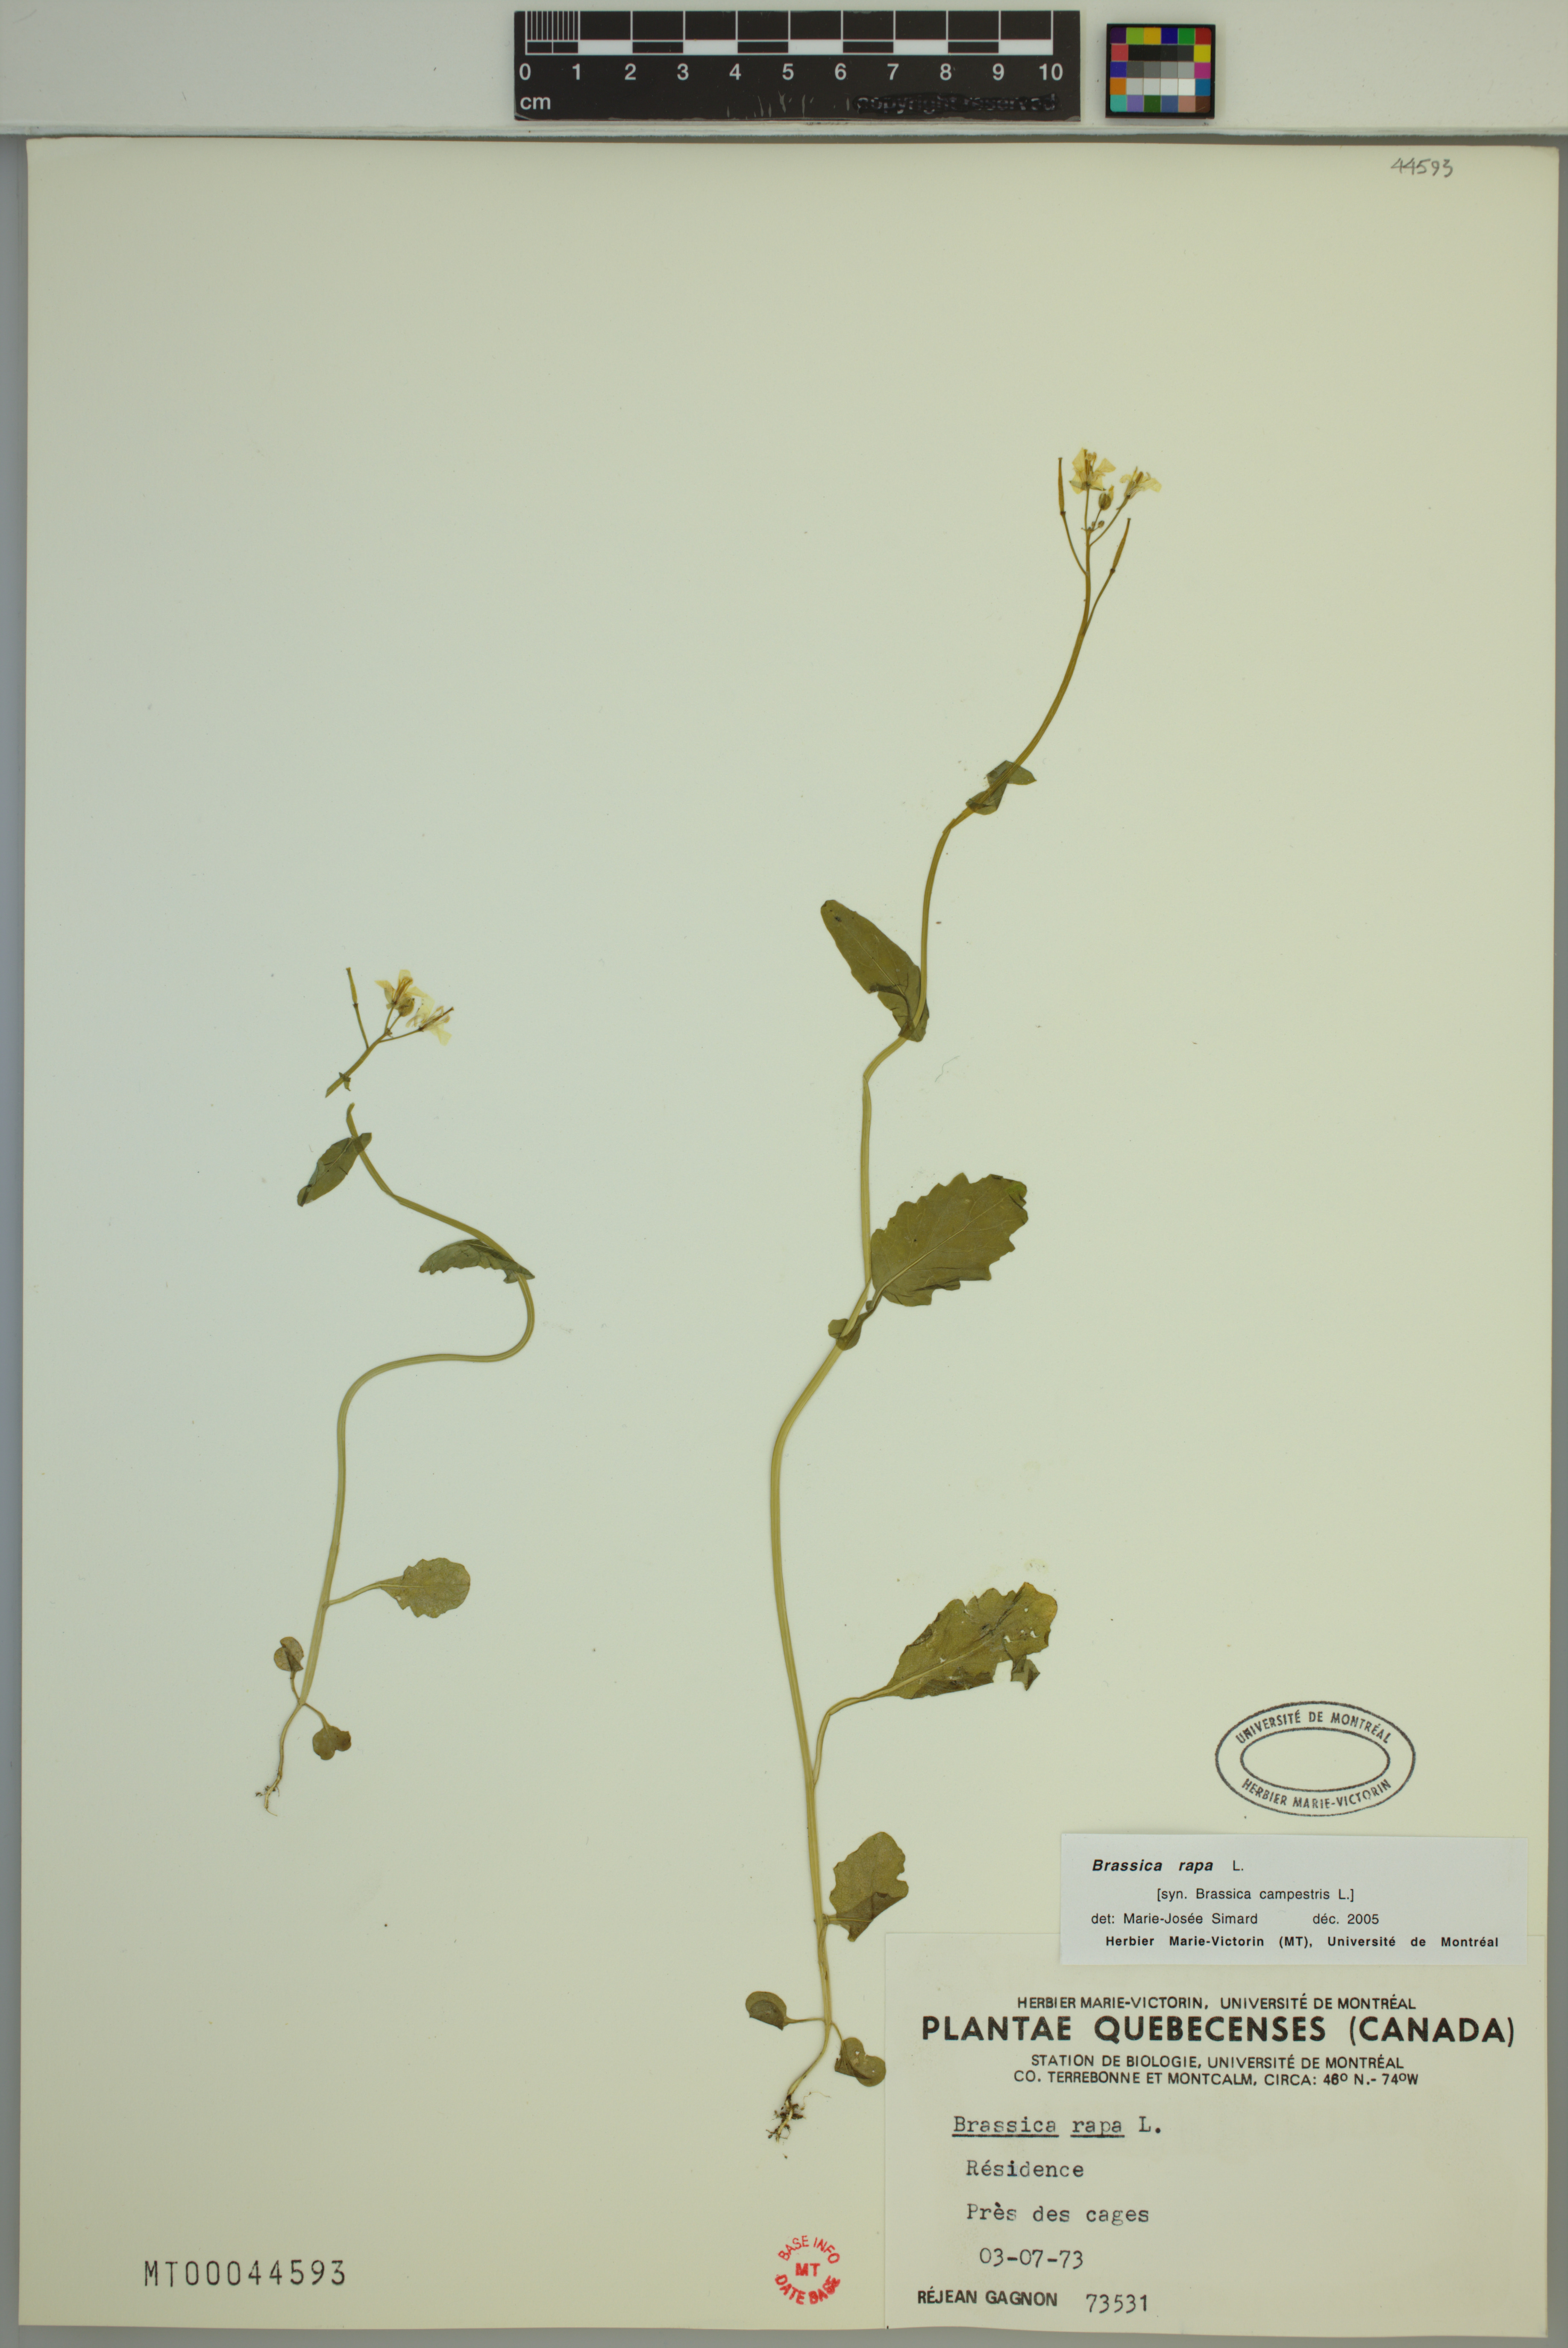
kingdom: Plantae
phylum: Tracheophyta
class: Magnoliopsida
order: Brassicales
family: Brassicaceae
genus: Brassica
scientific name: Brassica rapa
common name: Field mustard
